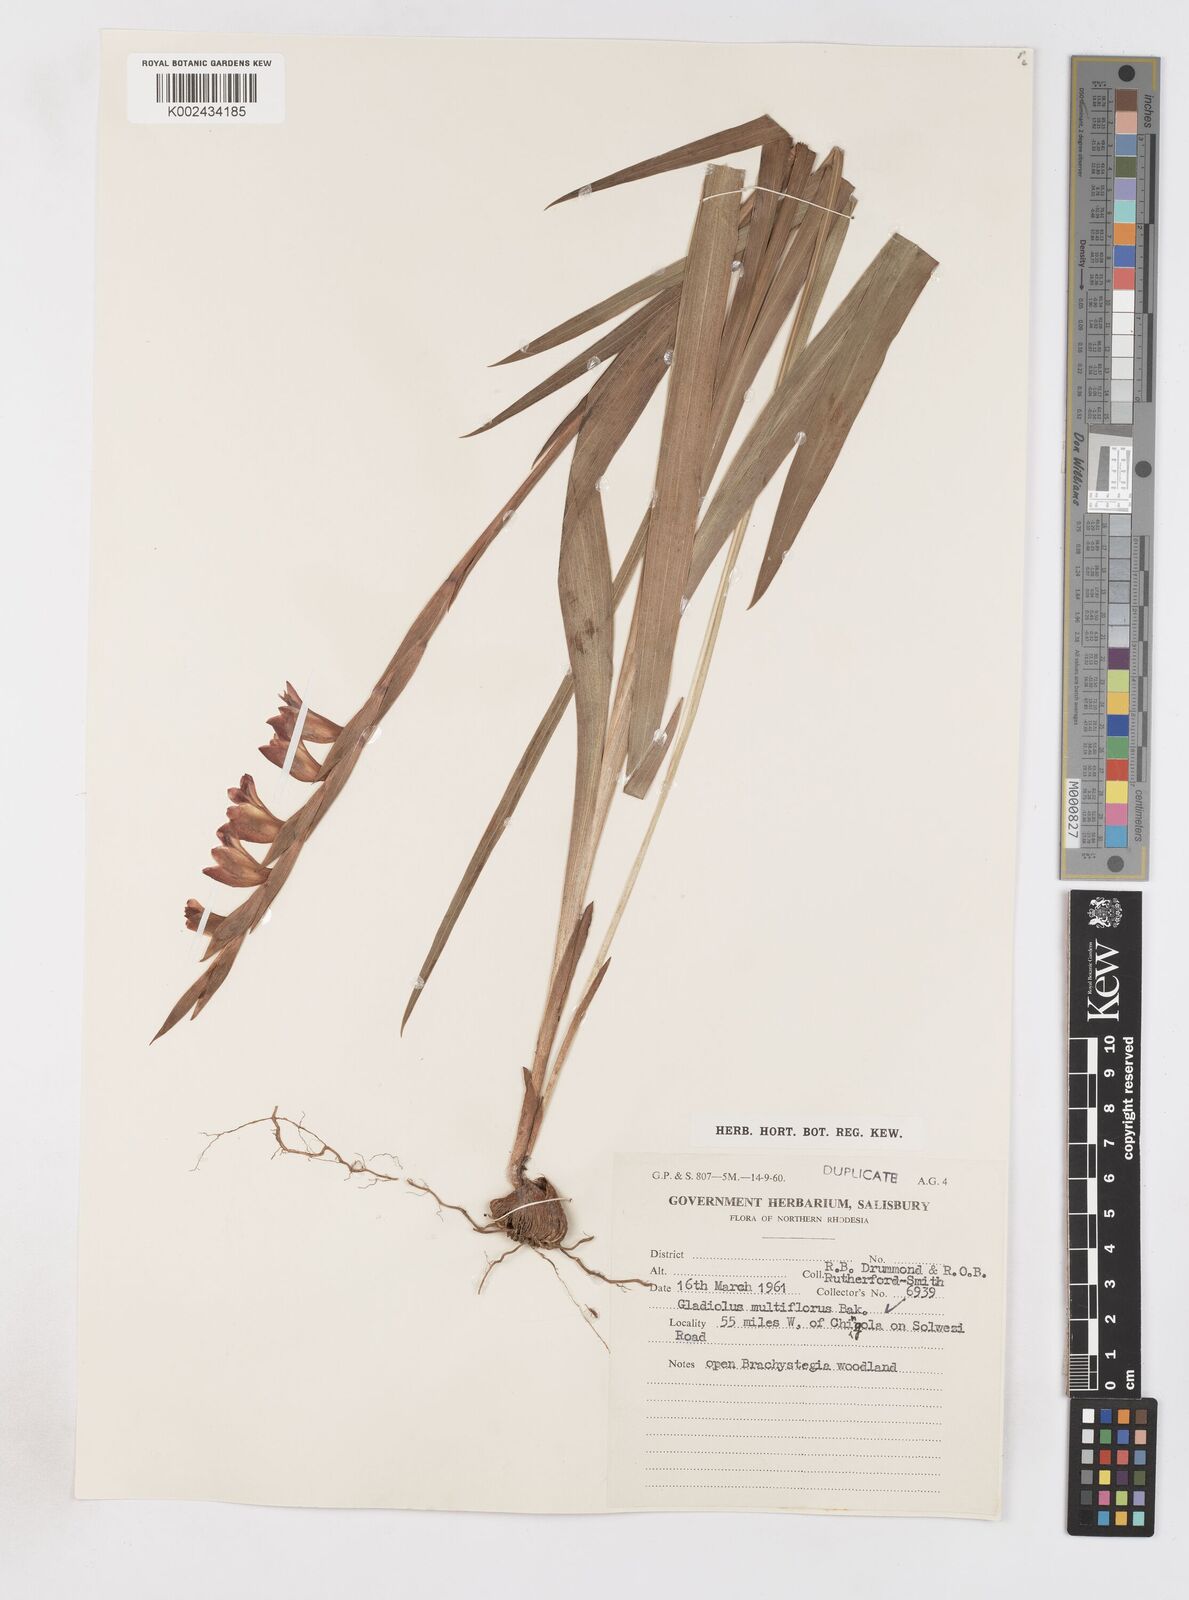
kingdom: Plantae
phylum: Tracheophyta
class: Liliopsida
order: Asparagales
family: Iridaceae
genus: Gladiolus
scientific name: Gladiolus gregarius
